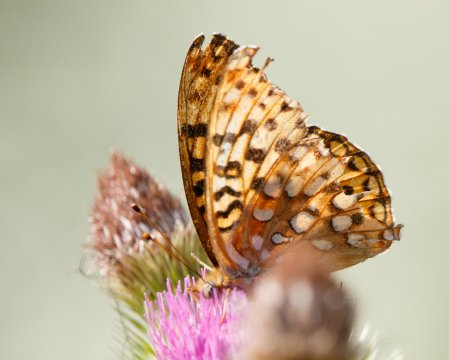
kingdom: Animalia
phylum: Arthropoda
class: Insecta
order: Lepidoptera
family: Nymphalidae
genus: Speyeria
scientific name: Speyeria hydaspe
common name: Hydaspe Fritillary
